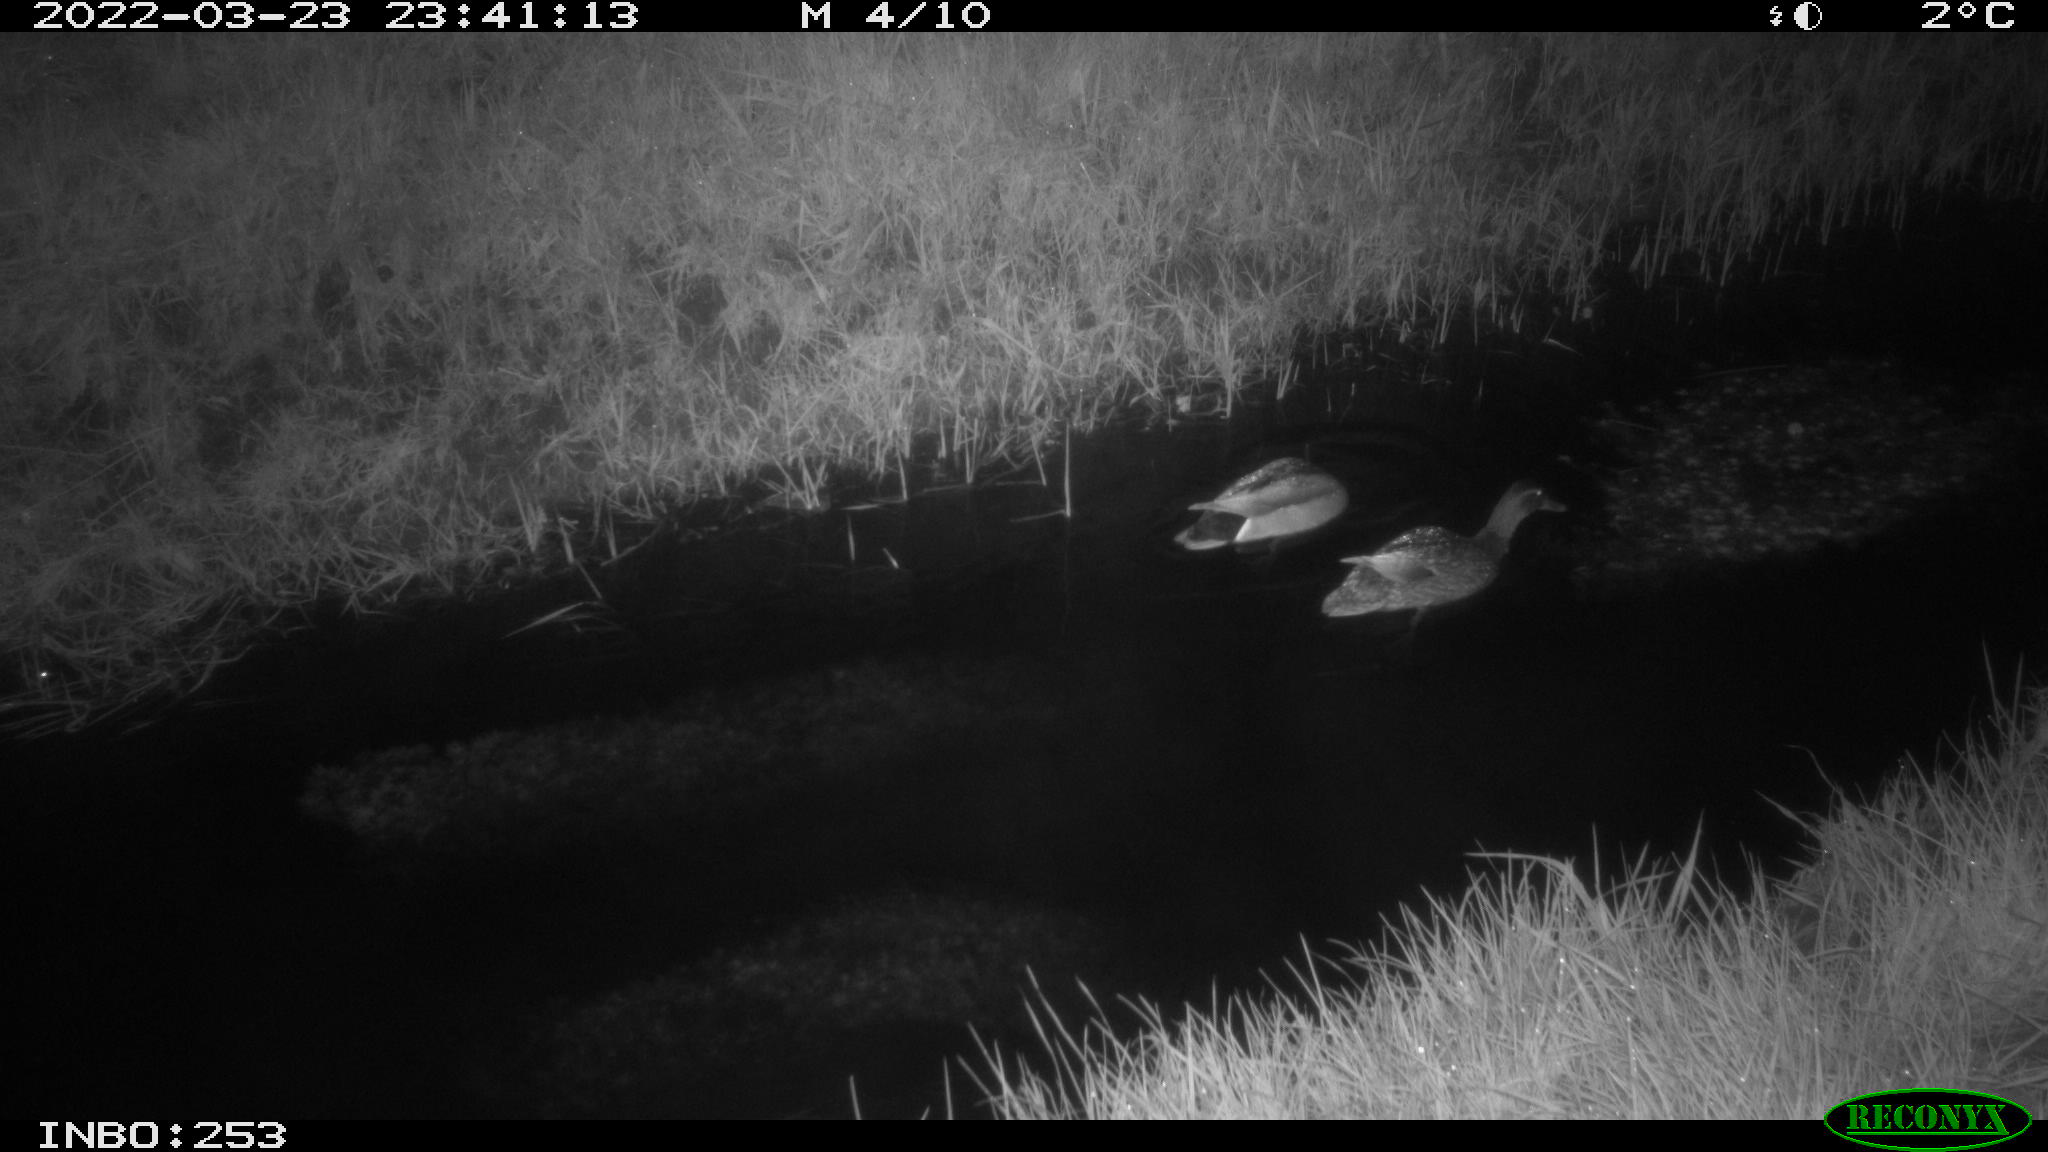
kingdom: Animalia
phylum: Chordata
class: Aves
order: Anseriformes
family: Anatidae
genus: Anas
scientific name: Anas platyrhynchos
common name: Mallard
